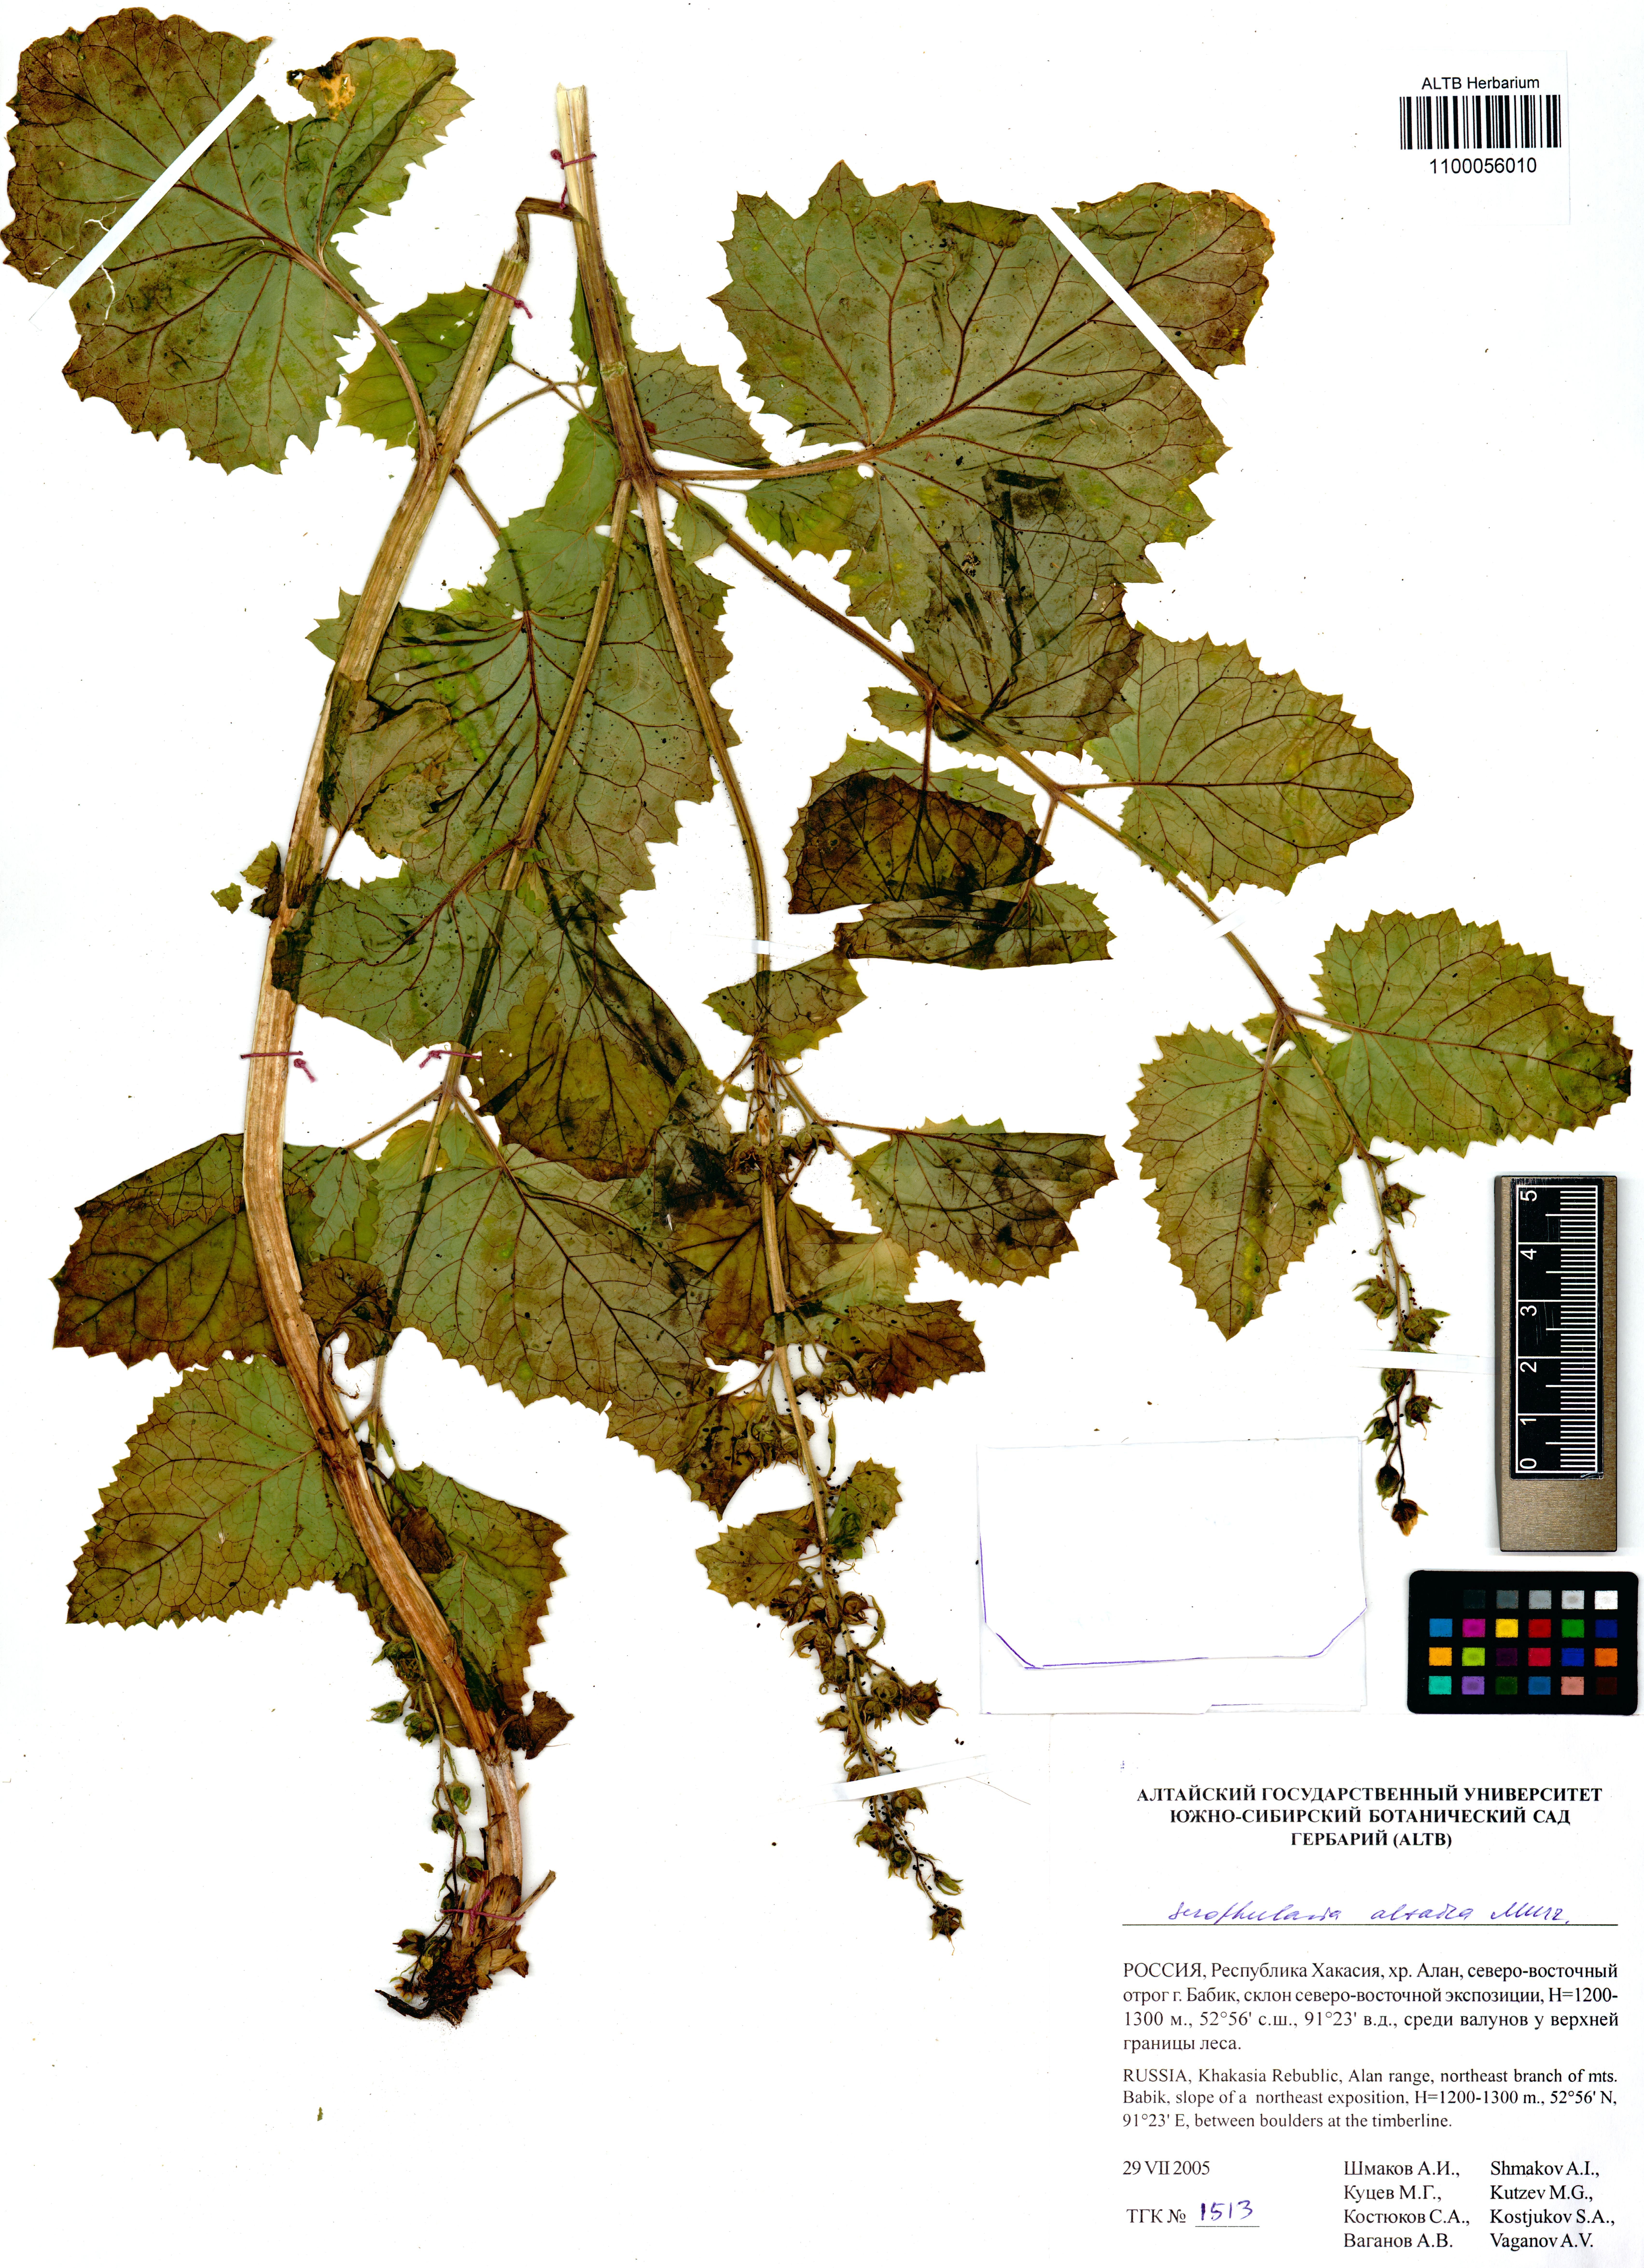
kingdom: Plantae
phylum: Tracheophyta
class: Magnoliopsida
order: Lamiales
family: Scrophulariaceae
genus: Scrophularia
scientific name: Scrophularia altaica
